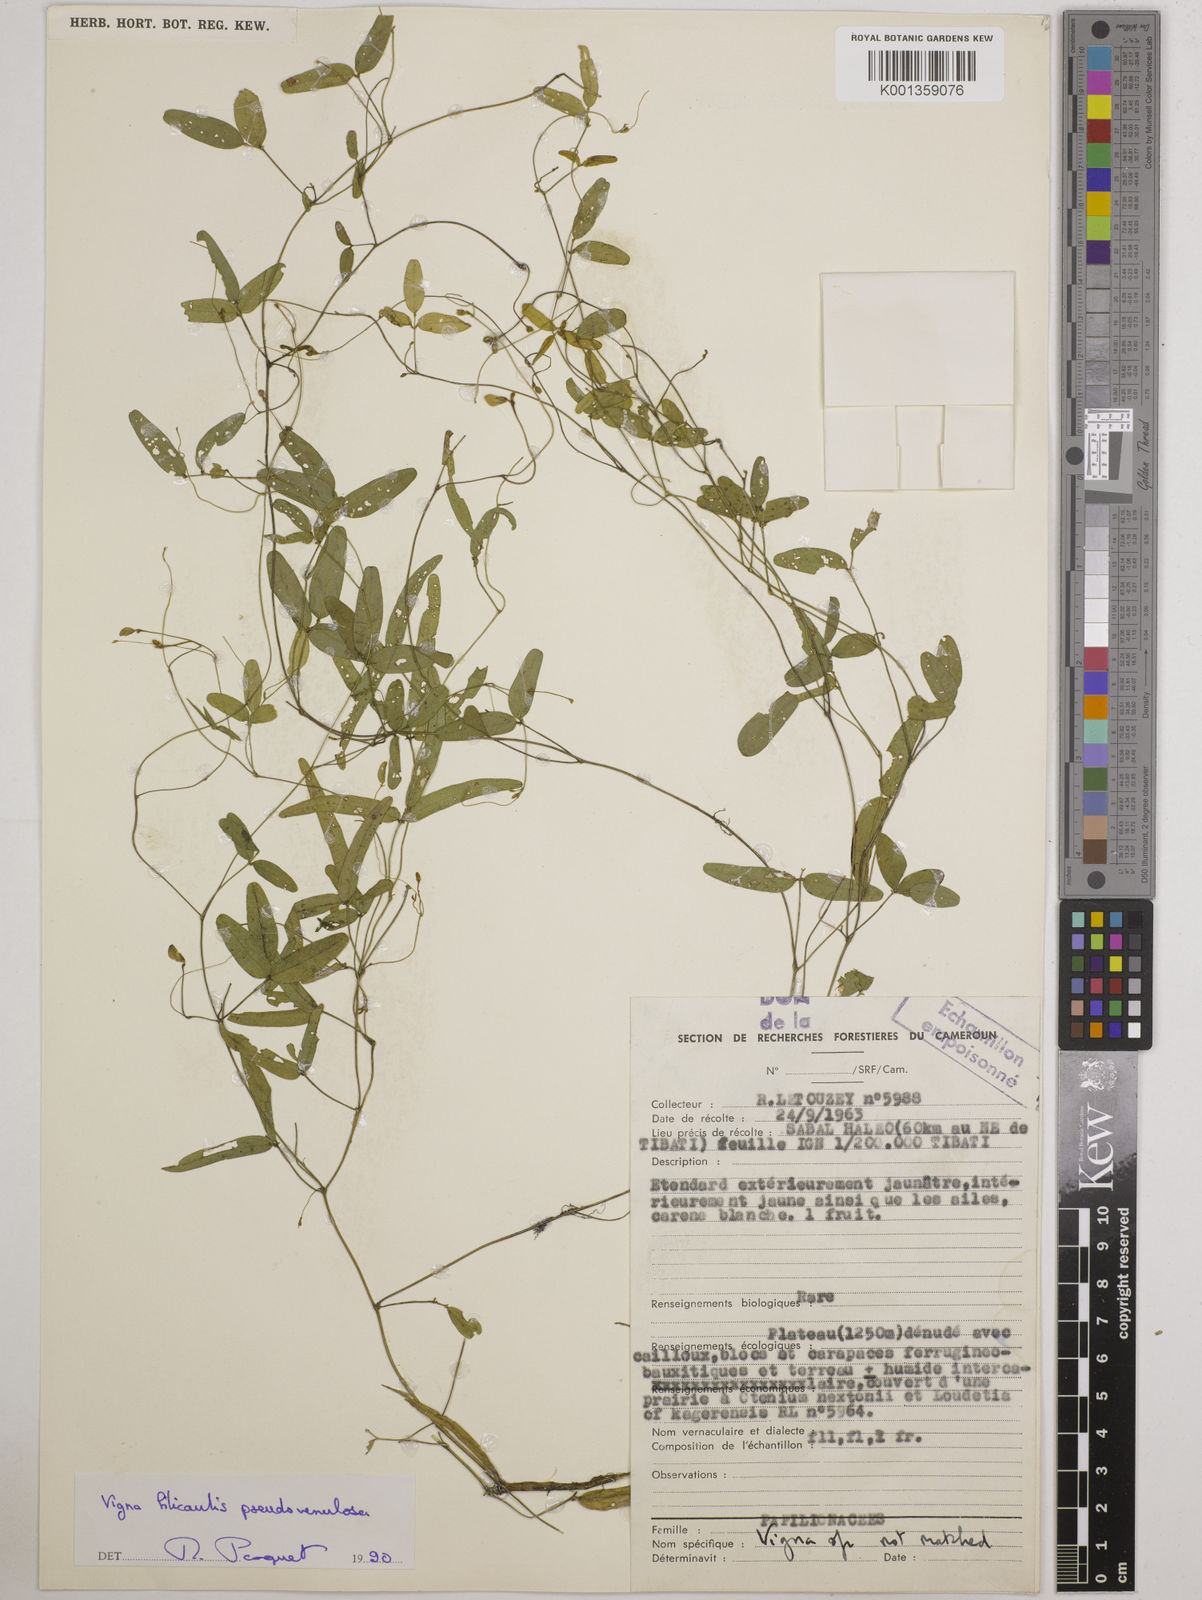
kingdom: Plantae
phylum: Tracheophyta
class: Magnoliopsida
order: Fabales
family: Fabaceae
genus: Vigna
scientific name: Vigna filicaulis
